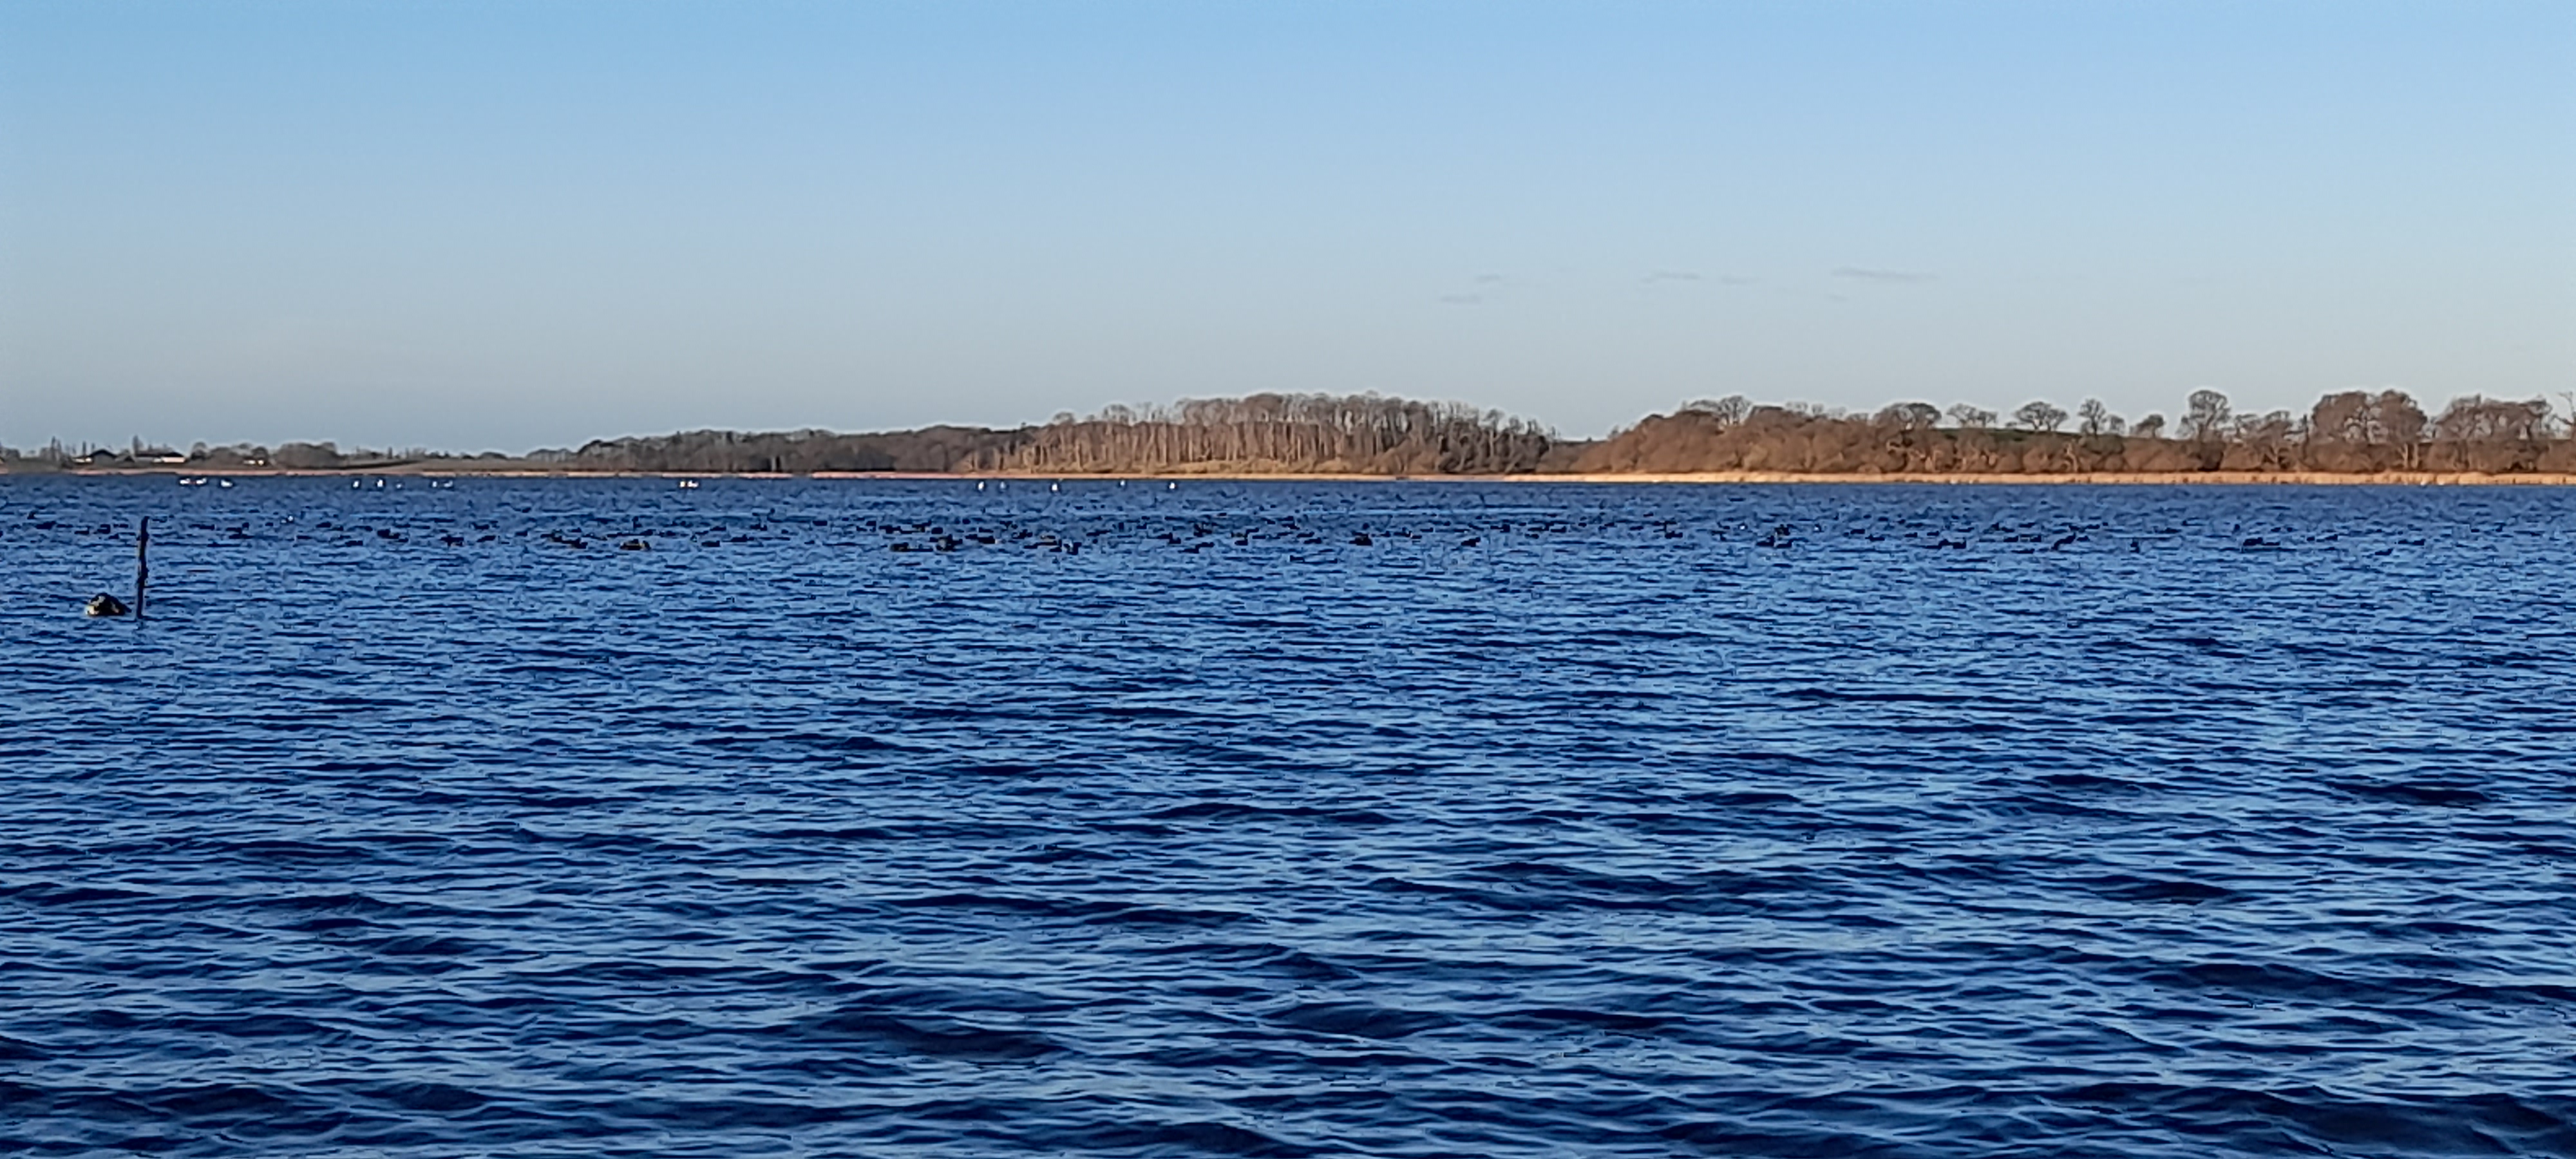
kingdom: Animalia
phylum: Chordata
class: Aves
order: Gruiformes
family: Rallidae
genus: Fulica
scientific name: Fulica atra
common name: Blishøne
